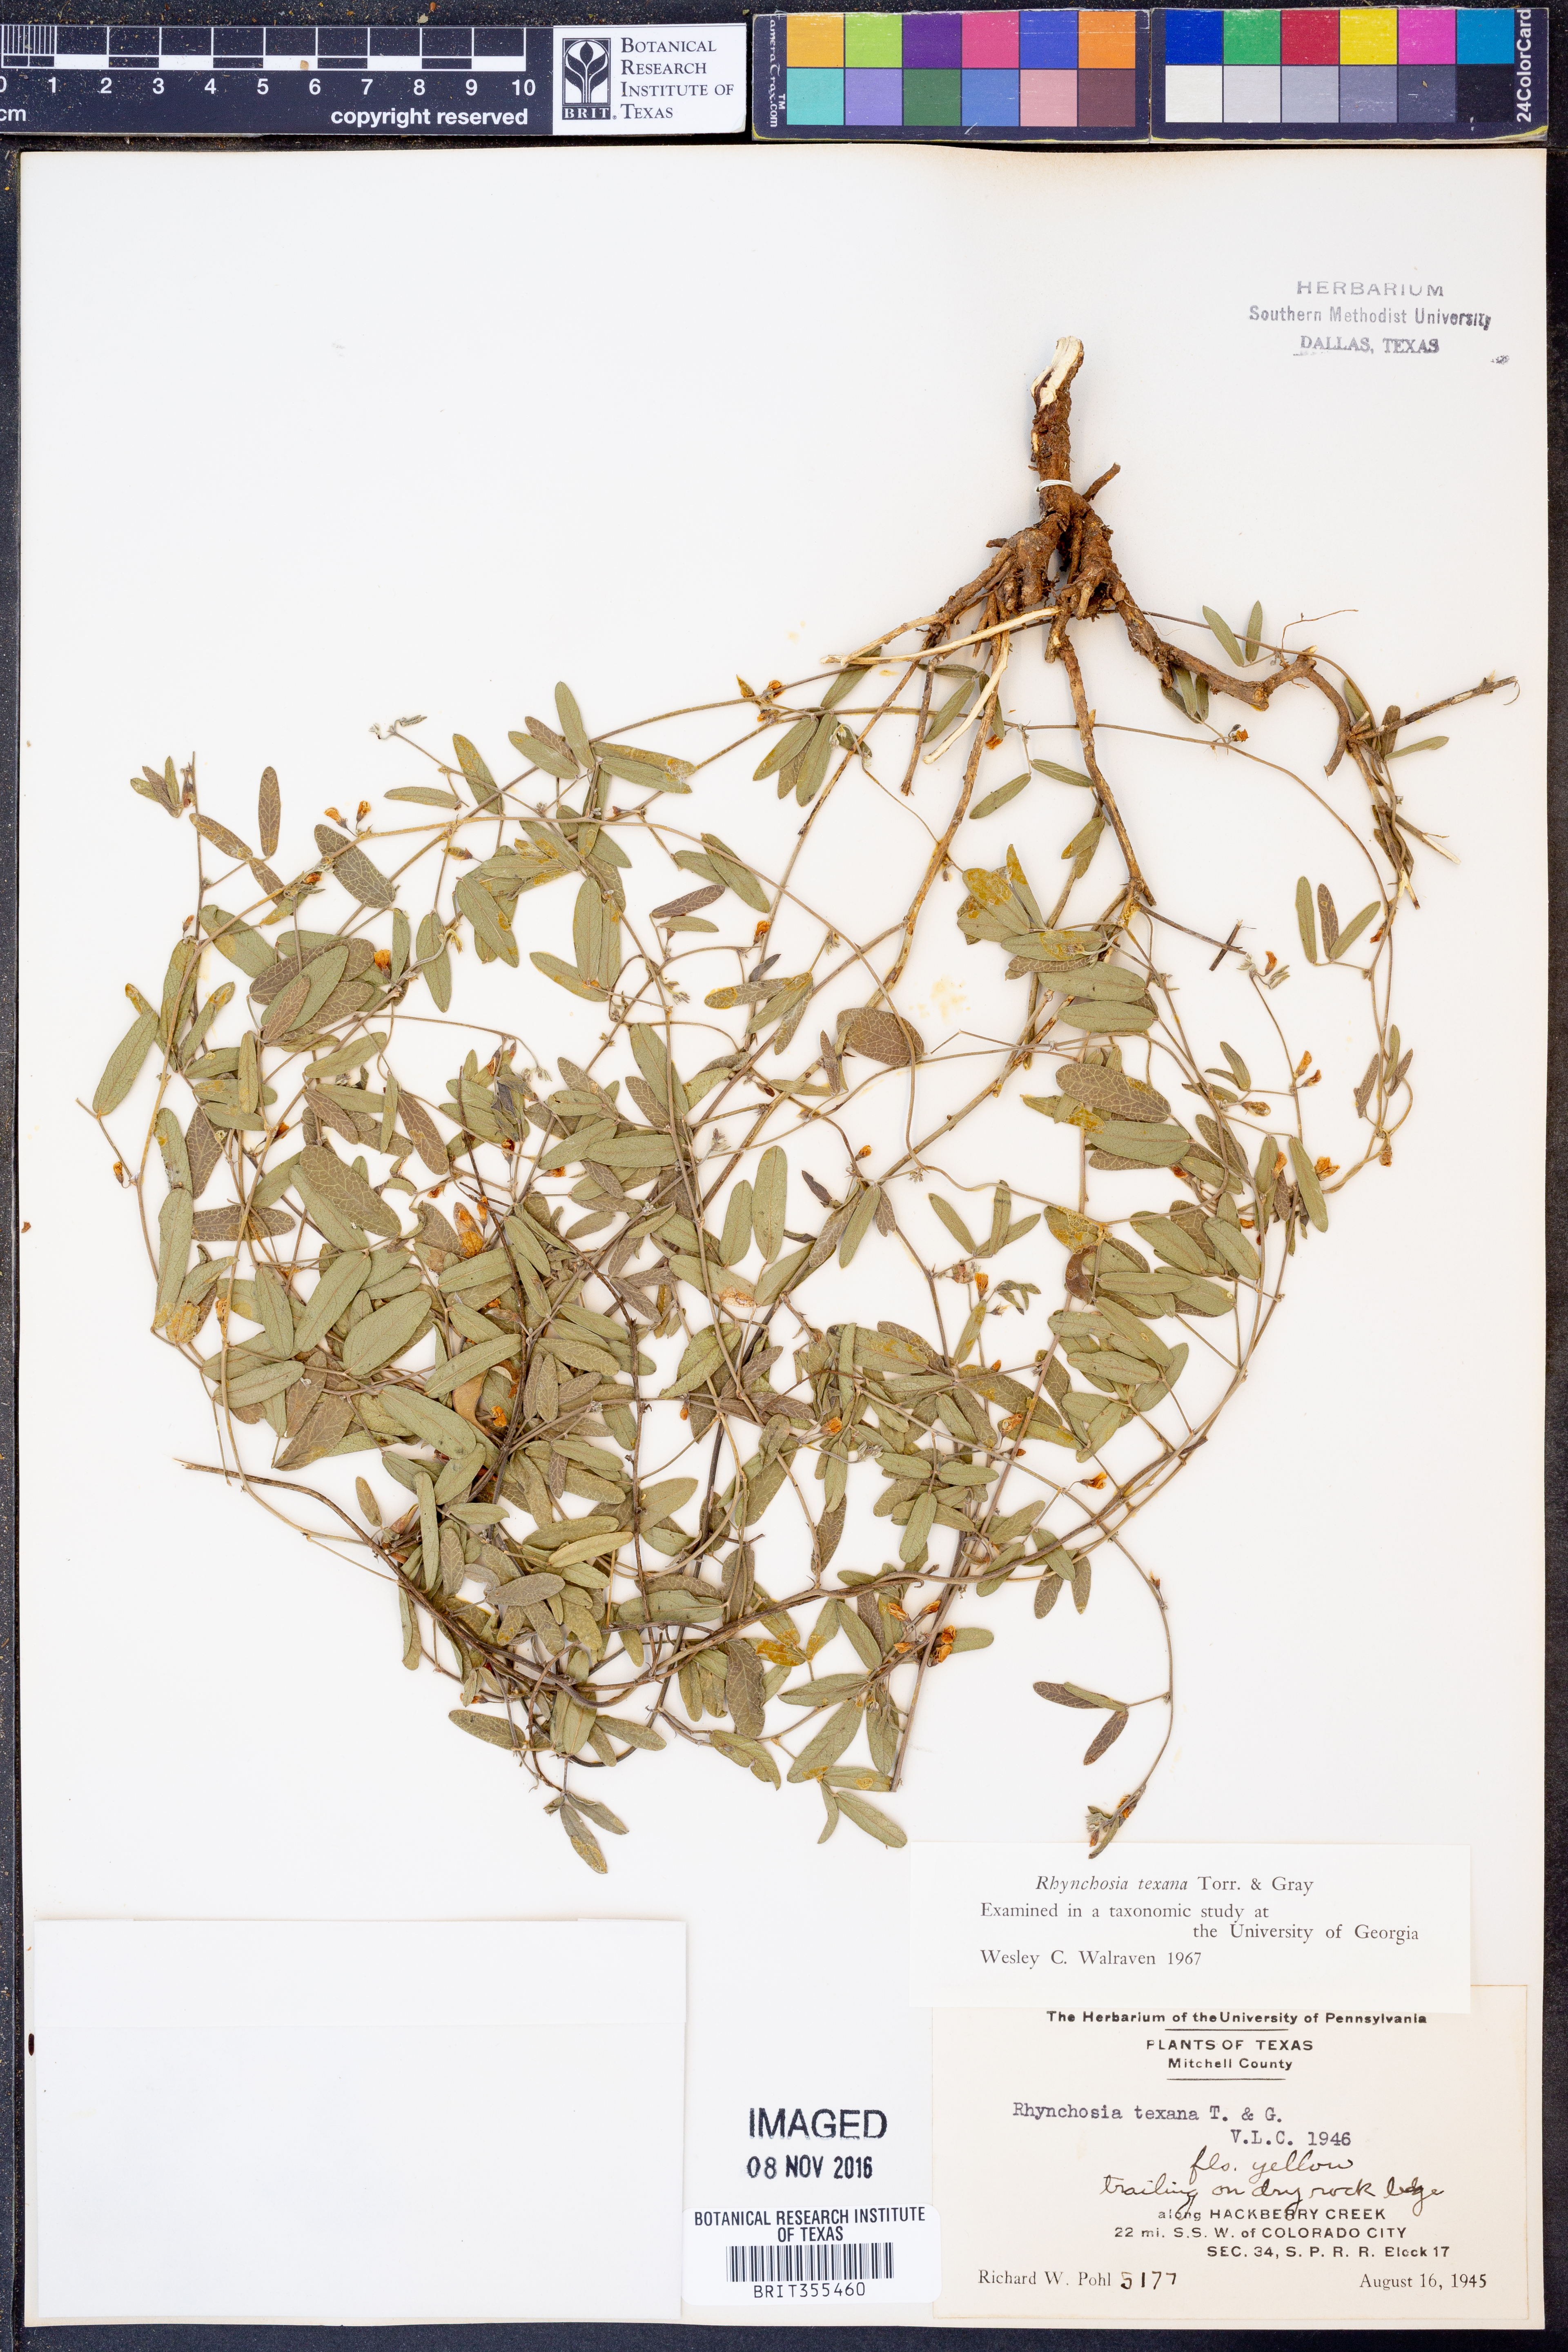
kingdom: Plantae
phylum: Tracheophyta
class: Magnoliopsida
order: Fabales
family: Fabaceae
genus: Rhynchosia
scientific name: Rhynchosia senna
